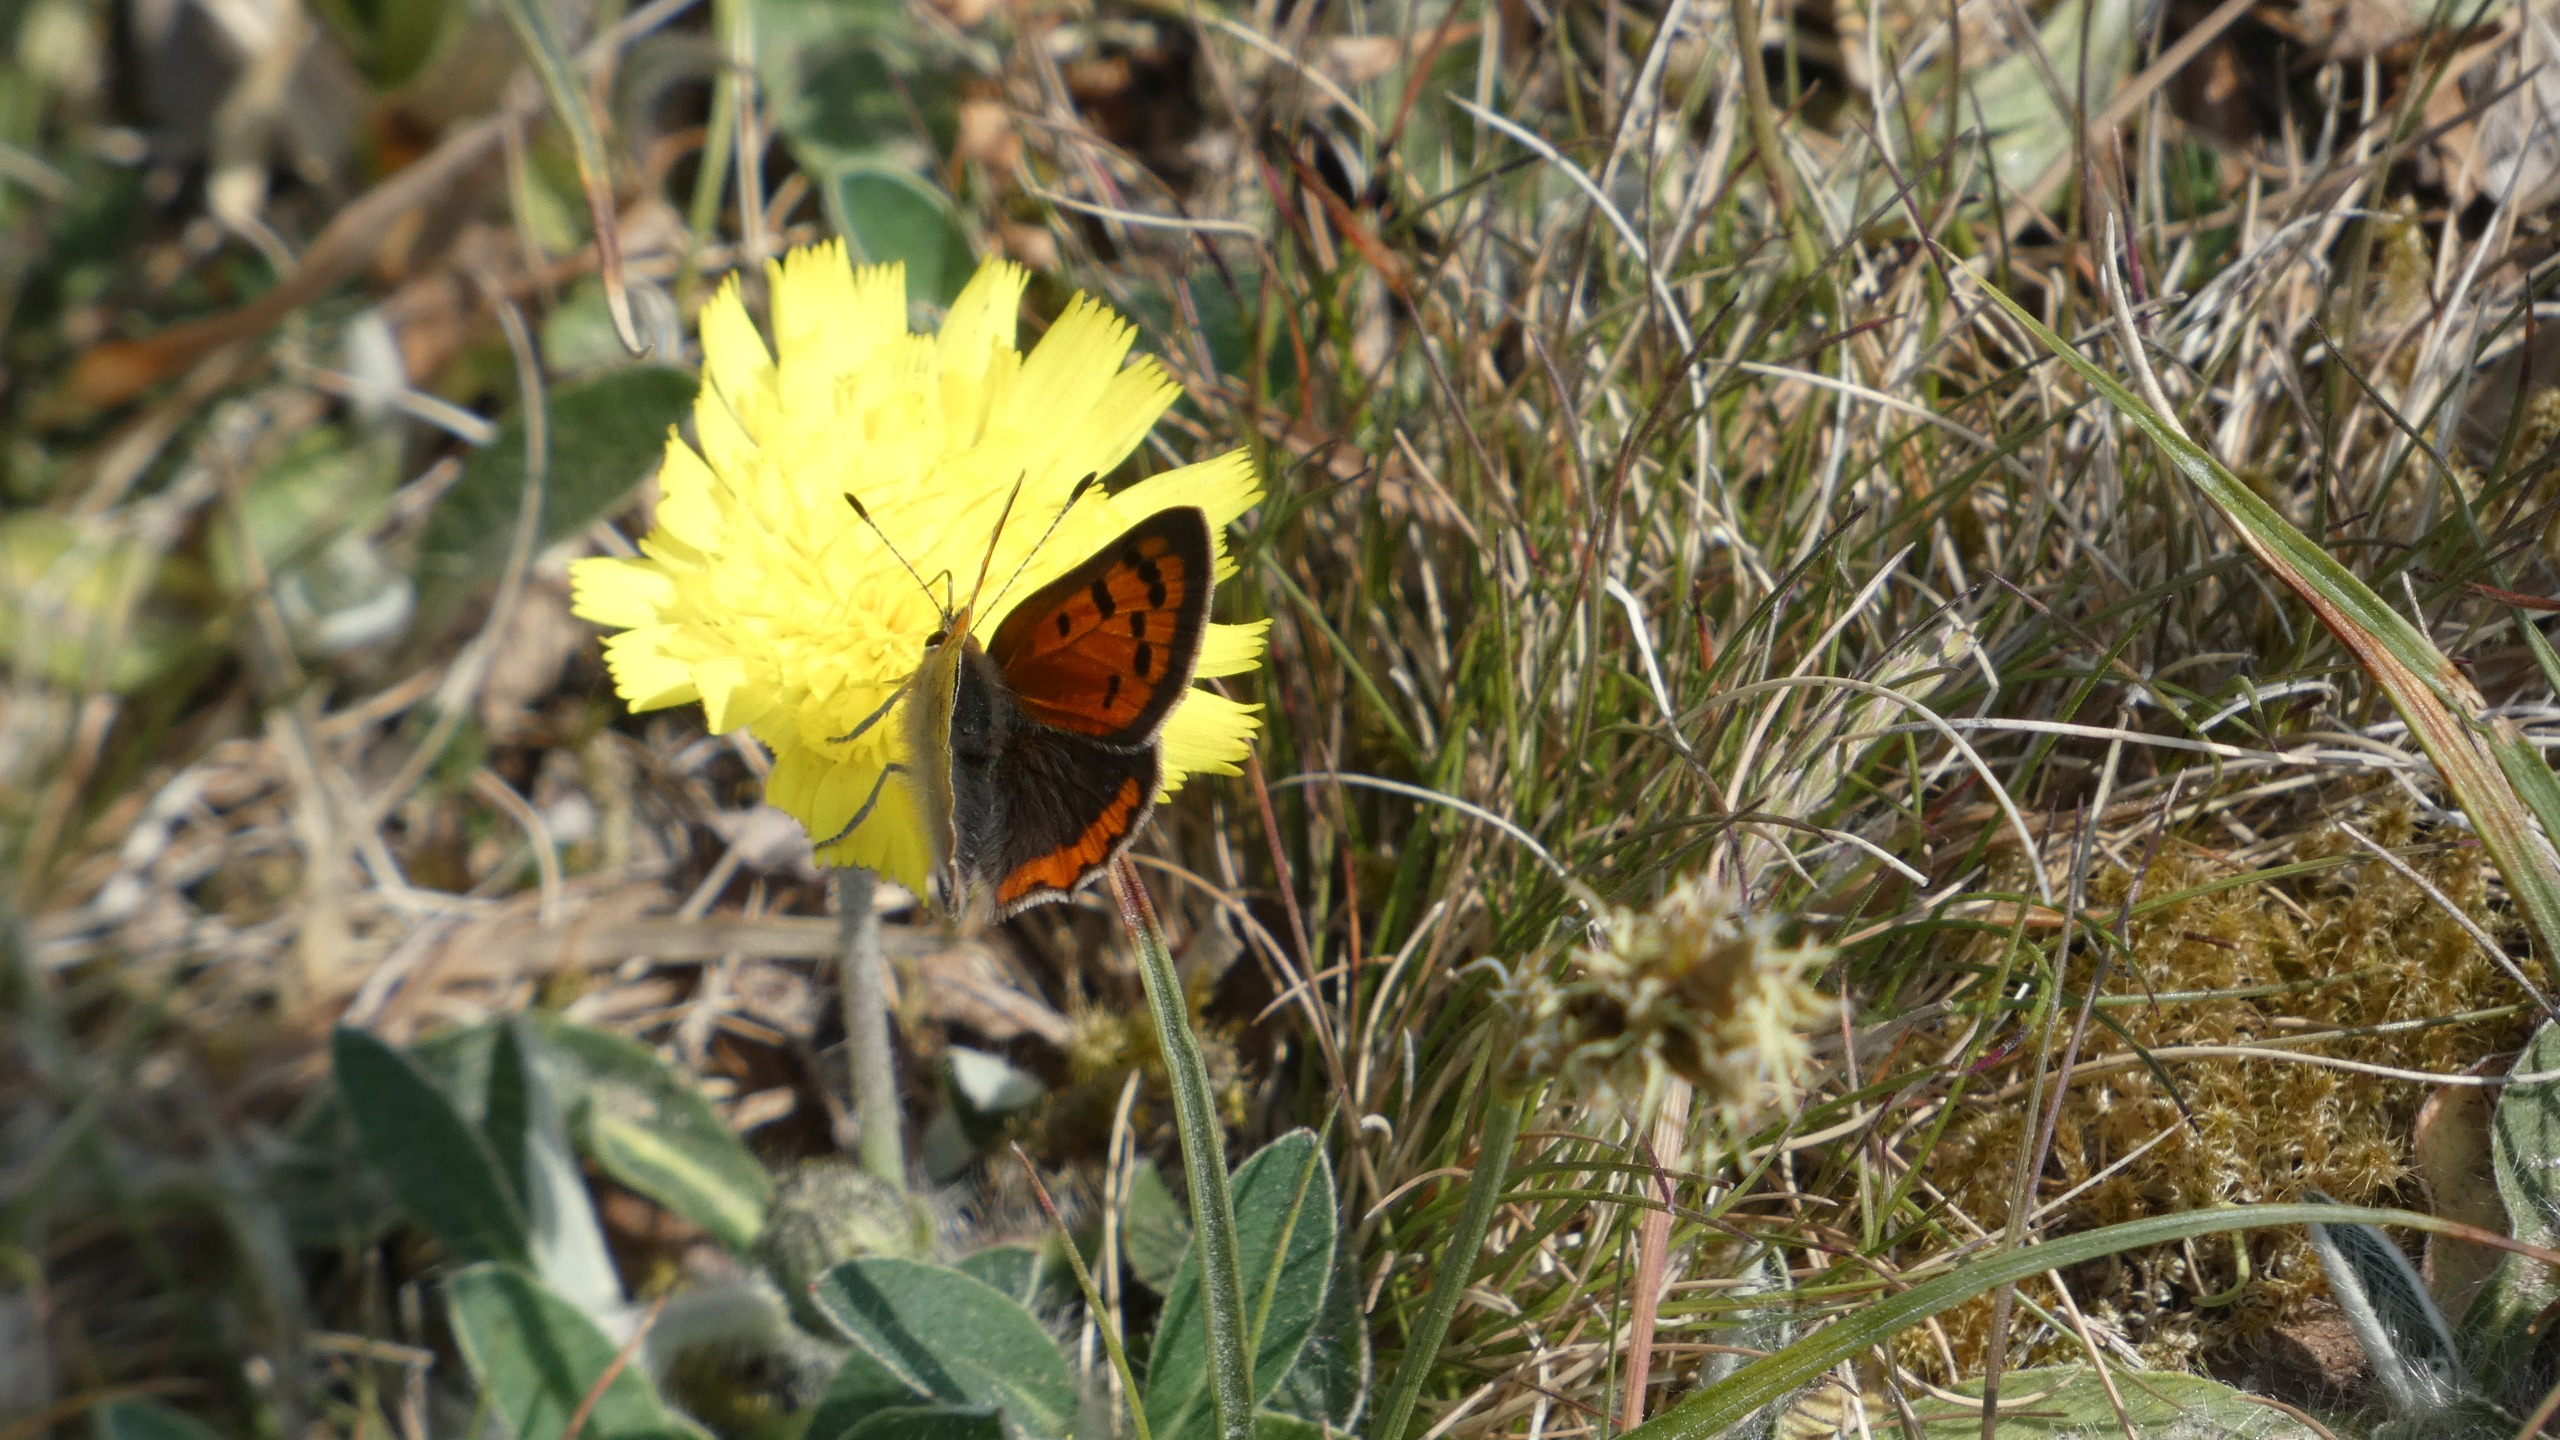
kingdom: Animalia
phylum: Arthropoda
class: Insecta
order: Lepidoptera
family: Lycaenidae
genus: Lycaena
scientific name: Lycaena phlaeas
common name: Lille ildfugl
